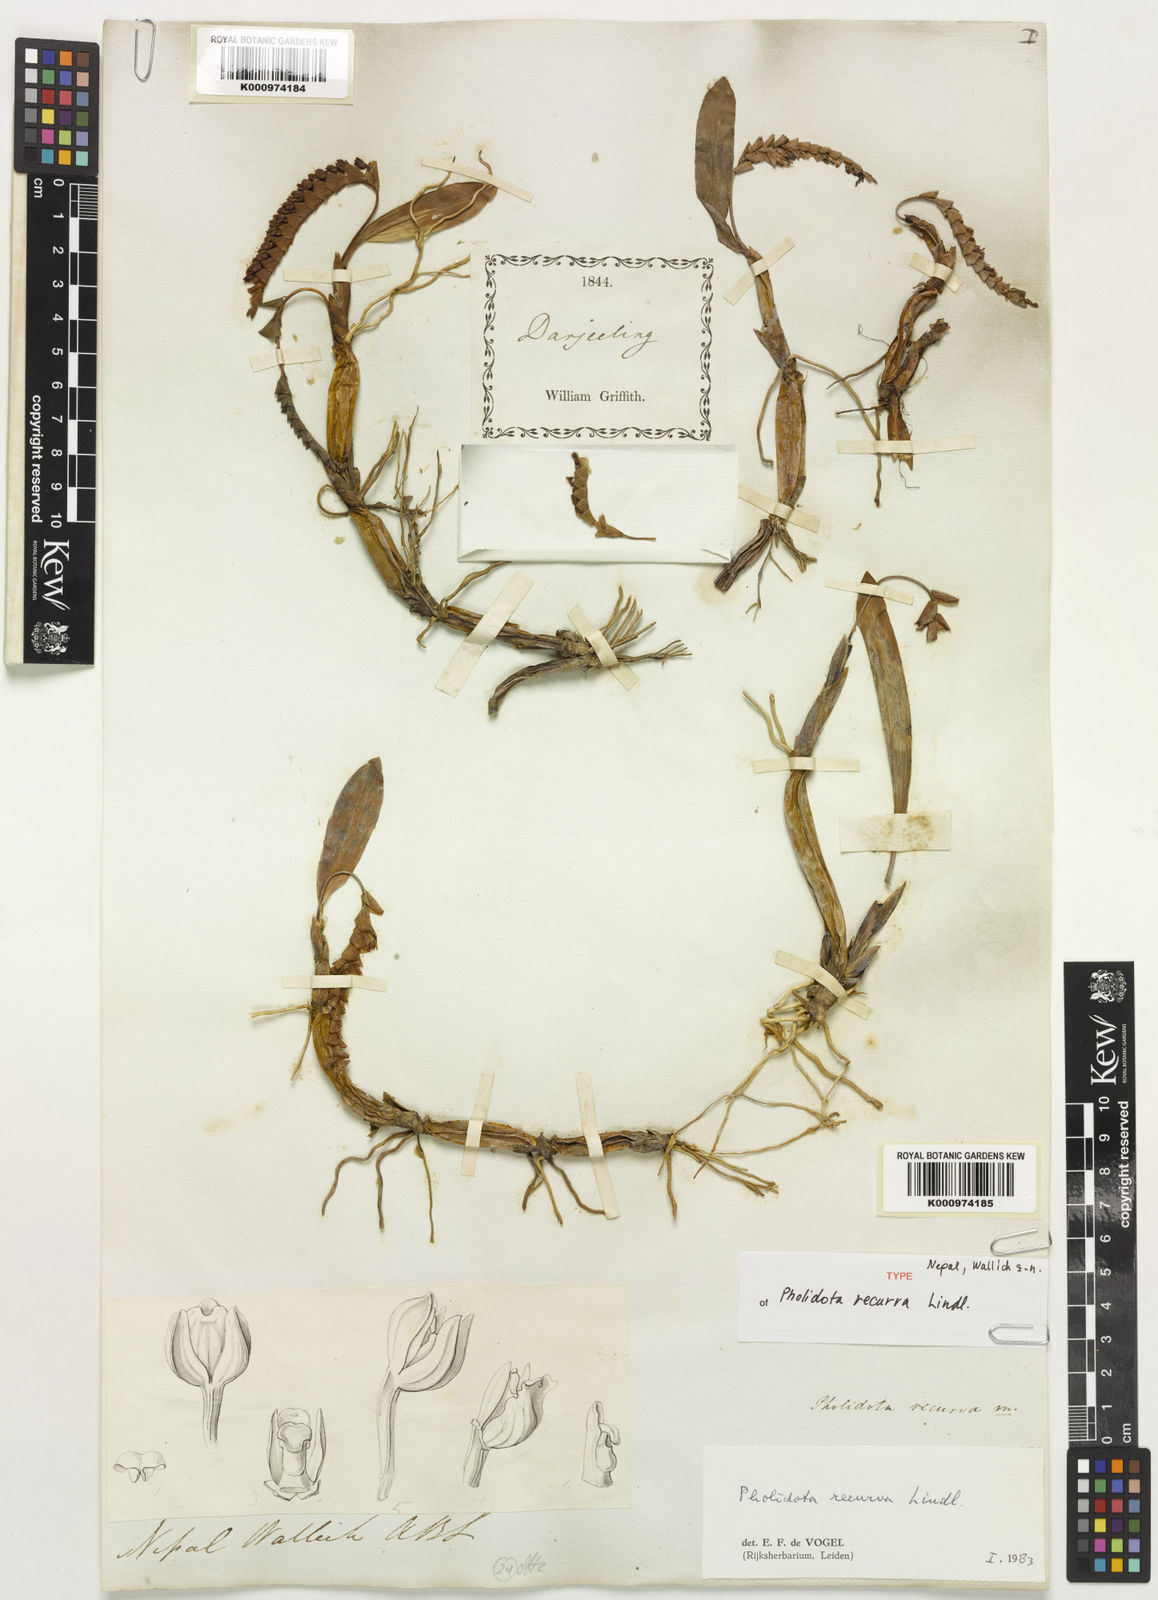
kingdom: Plantae
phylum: Tracheophyta
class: Liliopsida
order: Asparagales
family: Orchidaceae
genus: Coelogyne
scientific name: Coelogyne recurva
